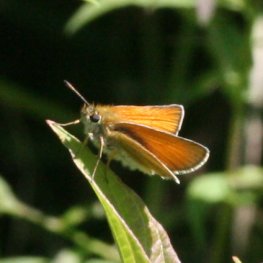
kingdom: Animalia
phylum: Arthropoda
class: Insecta
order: Lepidoptera
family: Hesperiidae
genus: Thymelicus
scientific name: Thymelicus lineola
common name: European Skipper
